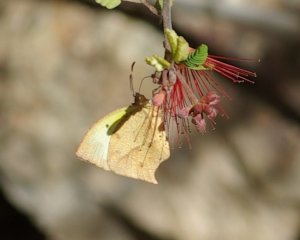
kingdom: Animalia
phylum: Arthropoda
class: Insecta
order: Lepidoptera
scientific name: Lepidoptera
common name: Butterflies
